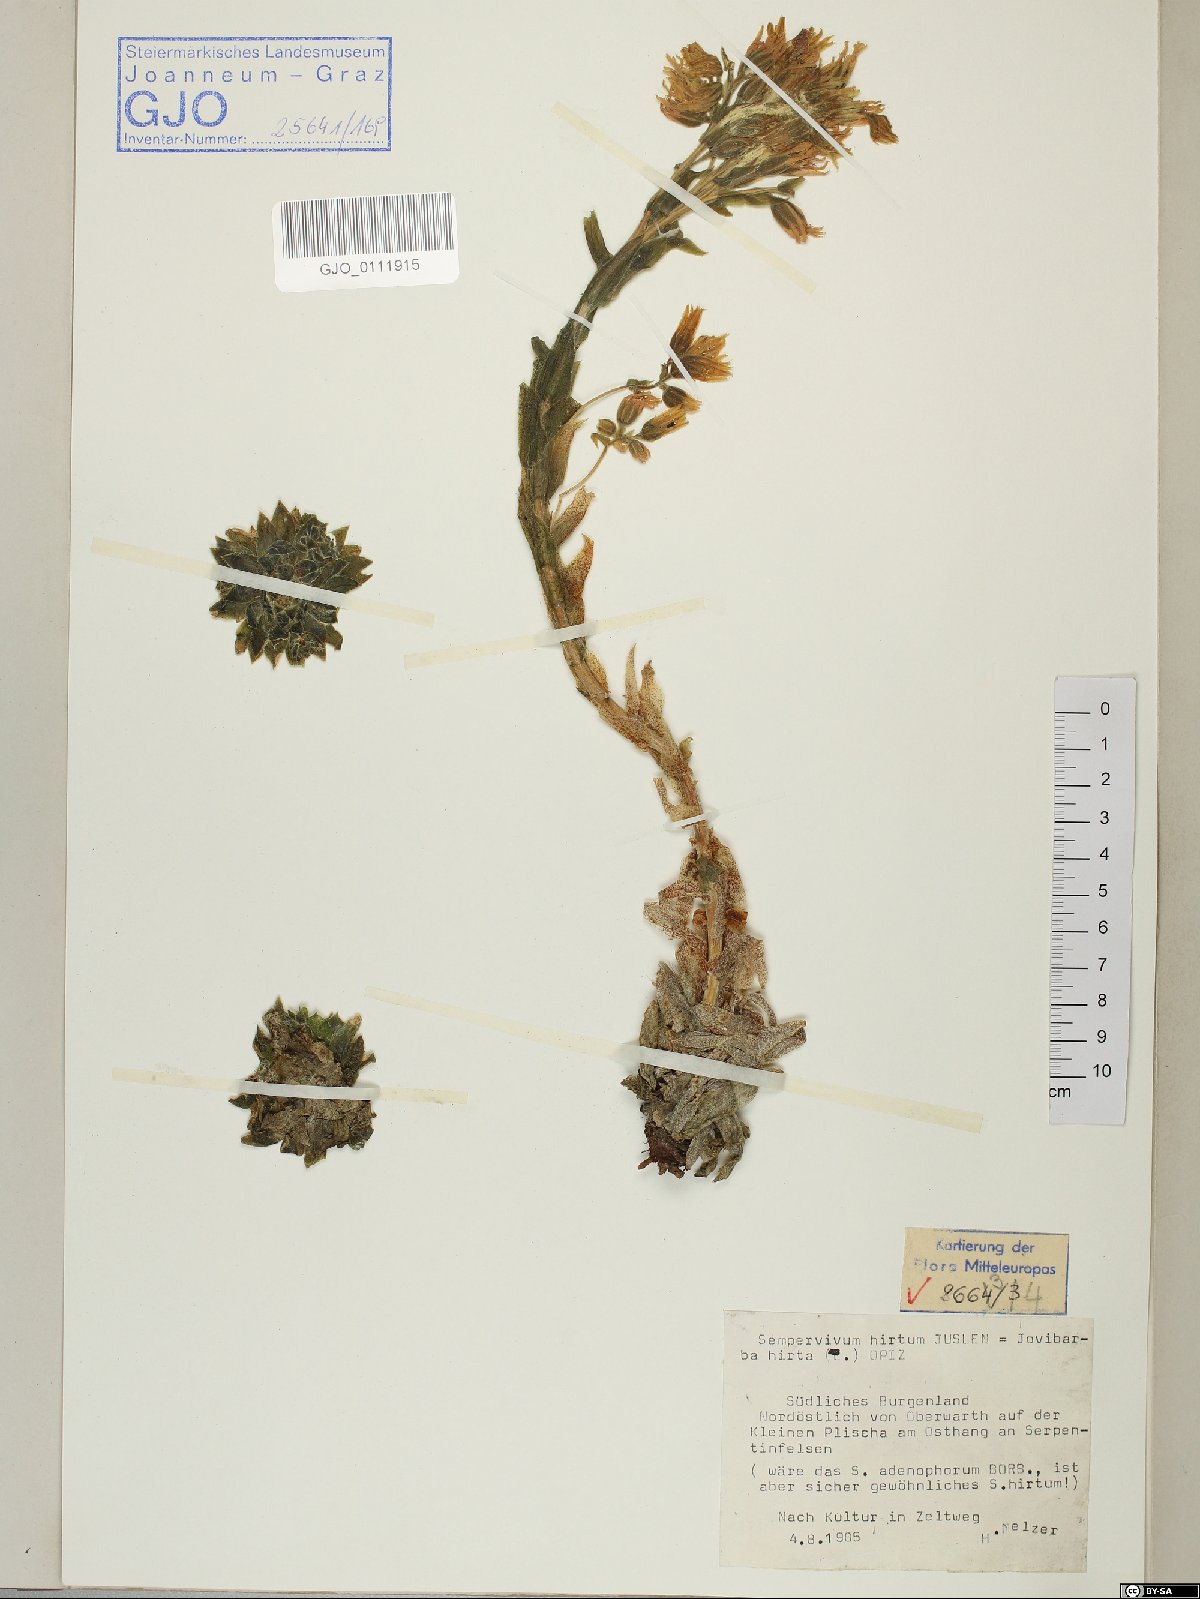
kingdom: Plantae
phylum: Tracheophyta
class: Magnoliopsida
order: Saxifragales
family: Crassulaceae
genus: Sempervivum
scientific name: Sempervivum globiferum
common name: Rolling hen-and-chicks
